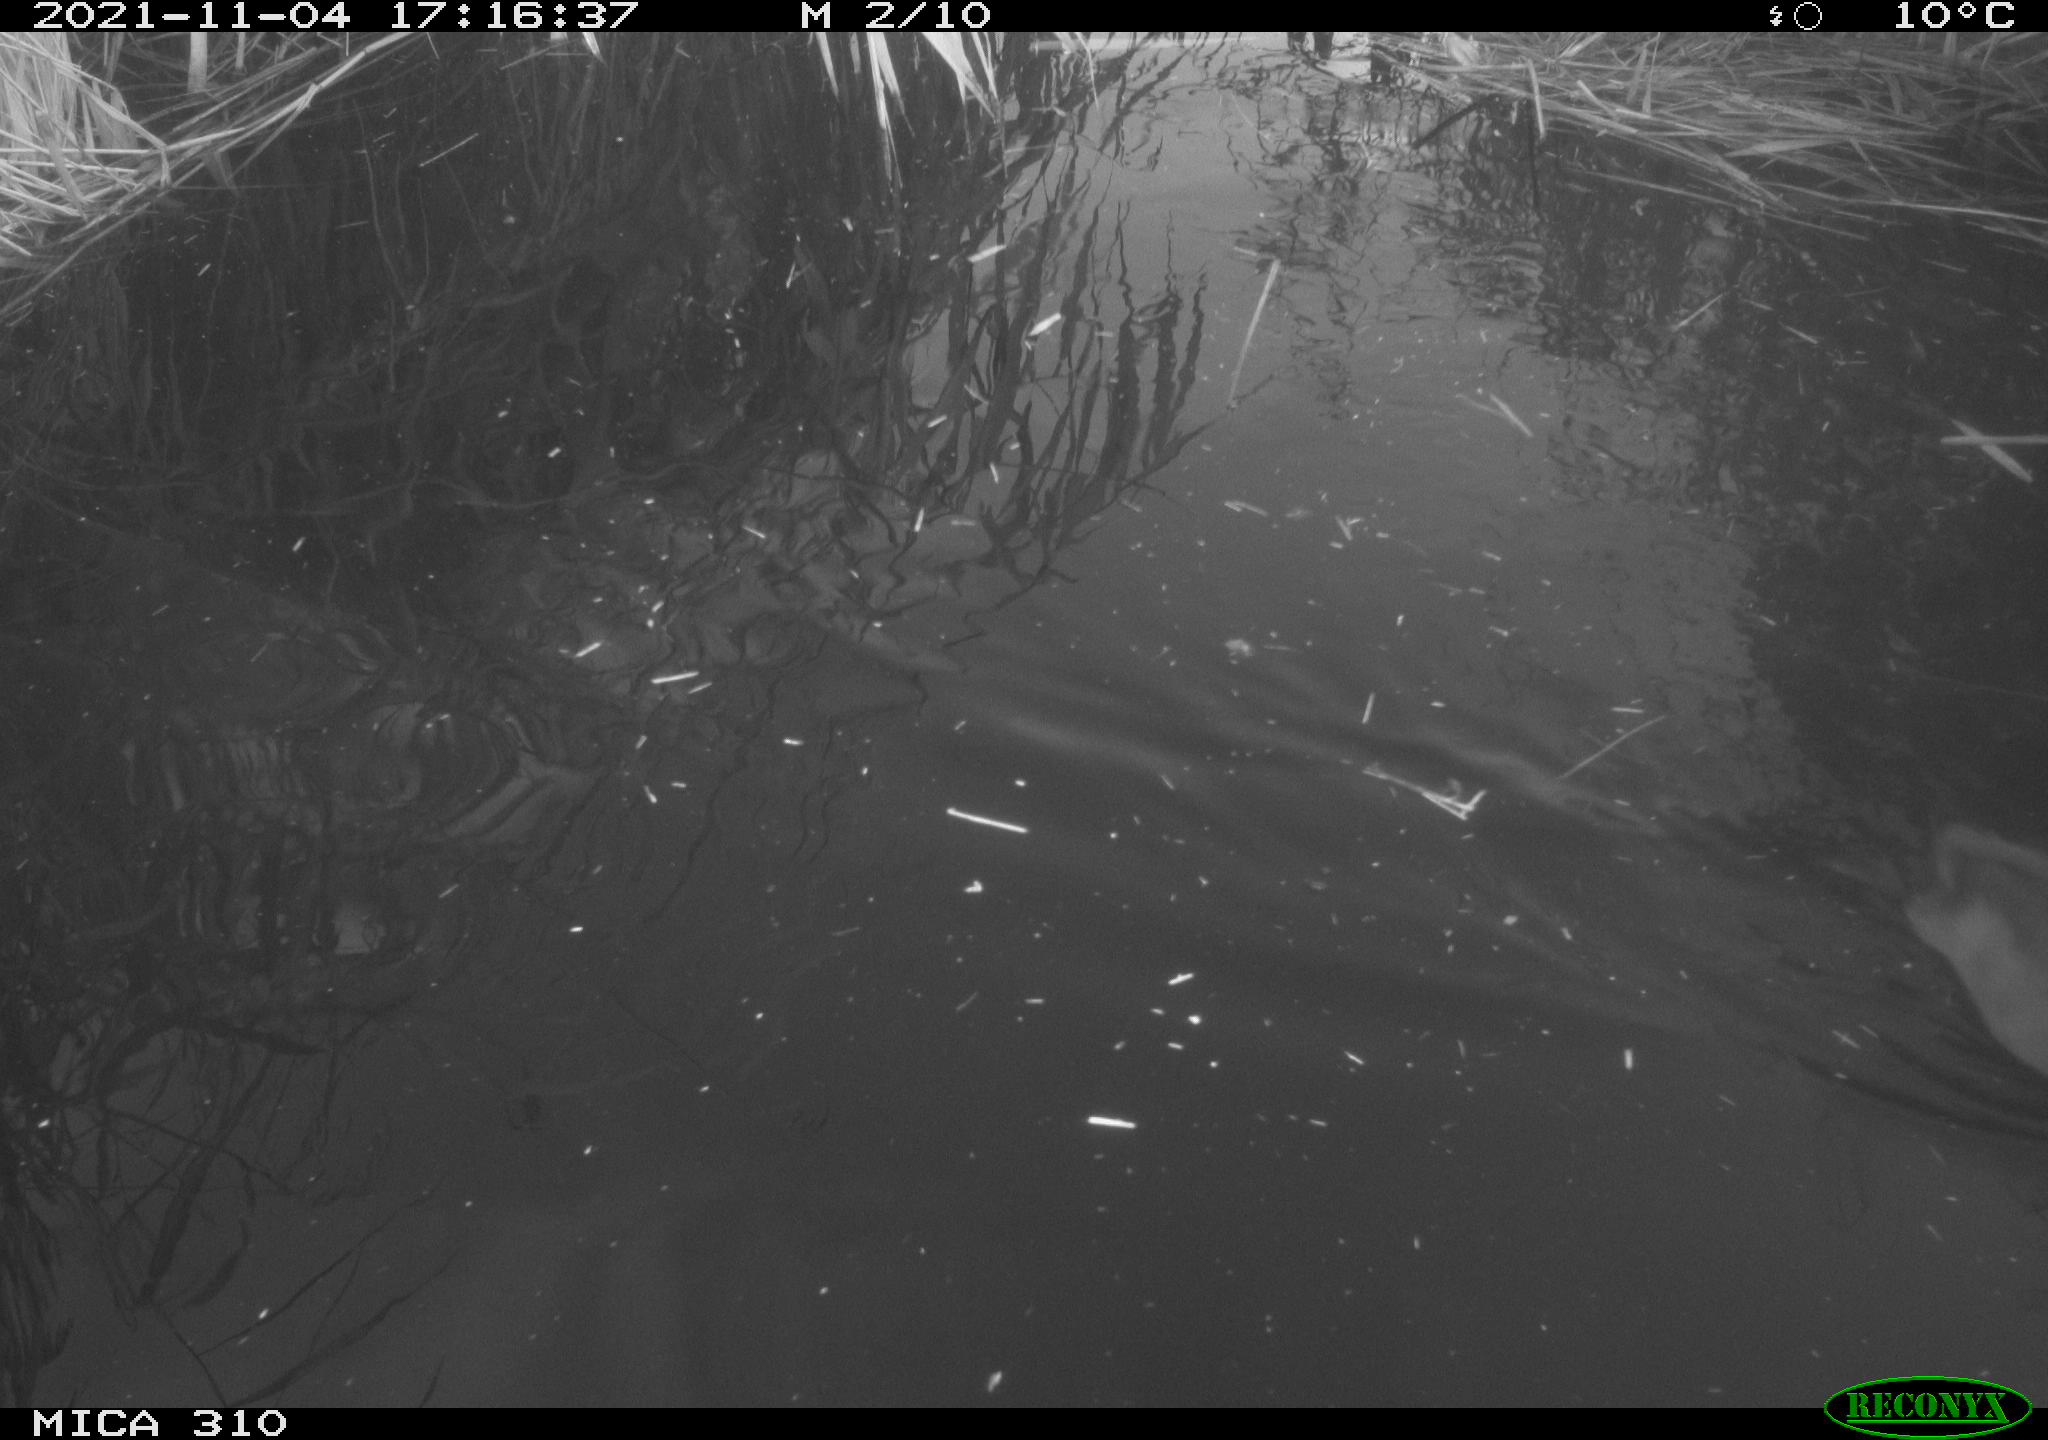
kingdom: Animalia
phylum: Chordata
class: Aves
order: Gruiformes
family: Rallidae
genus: Fulica
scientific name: Fulica atra
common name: Eurasian coot
